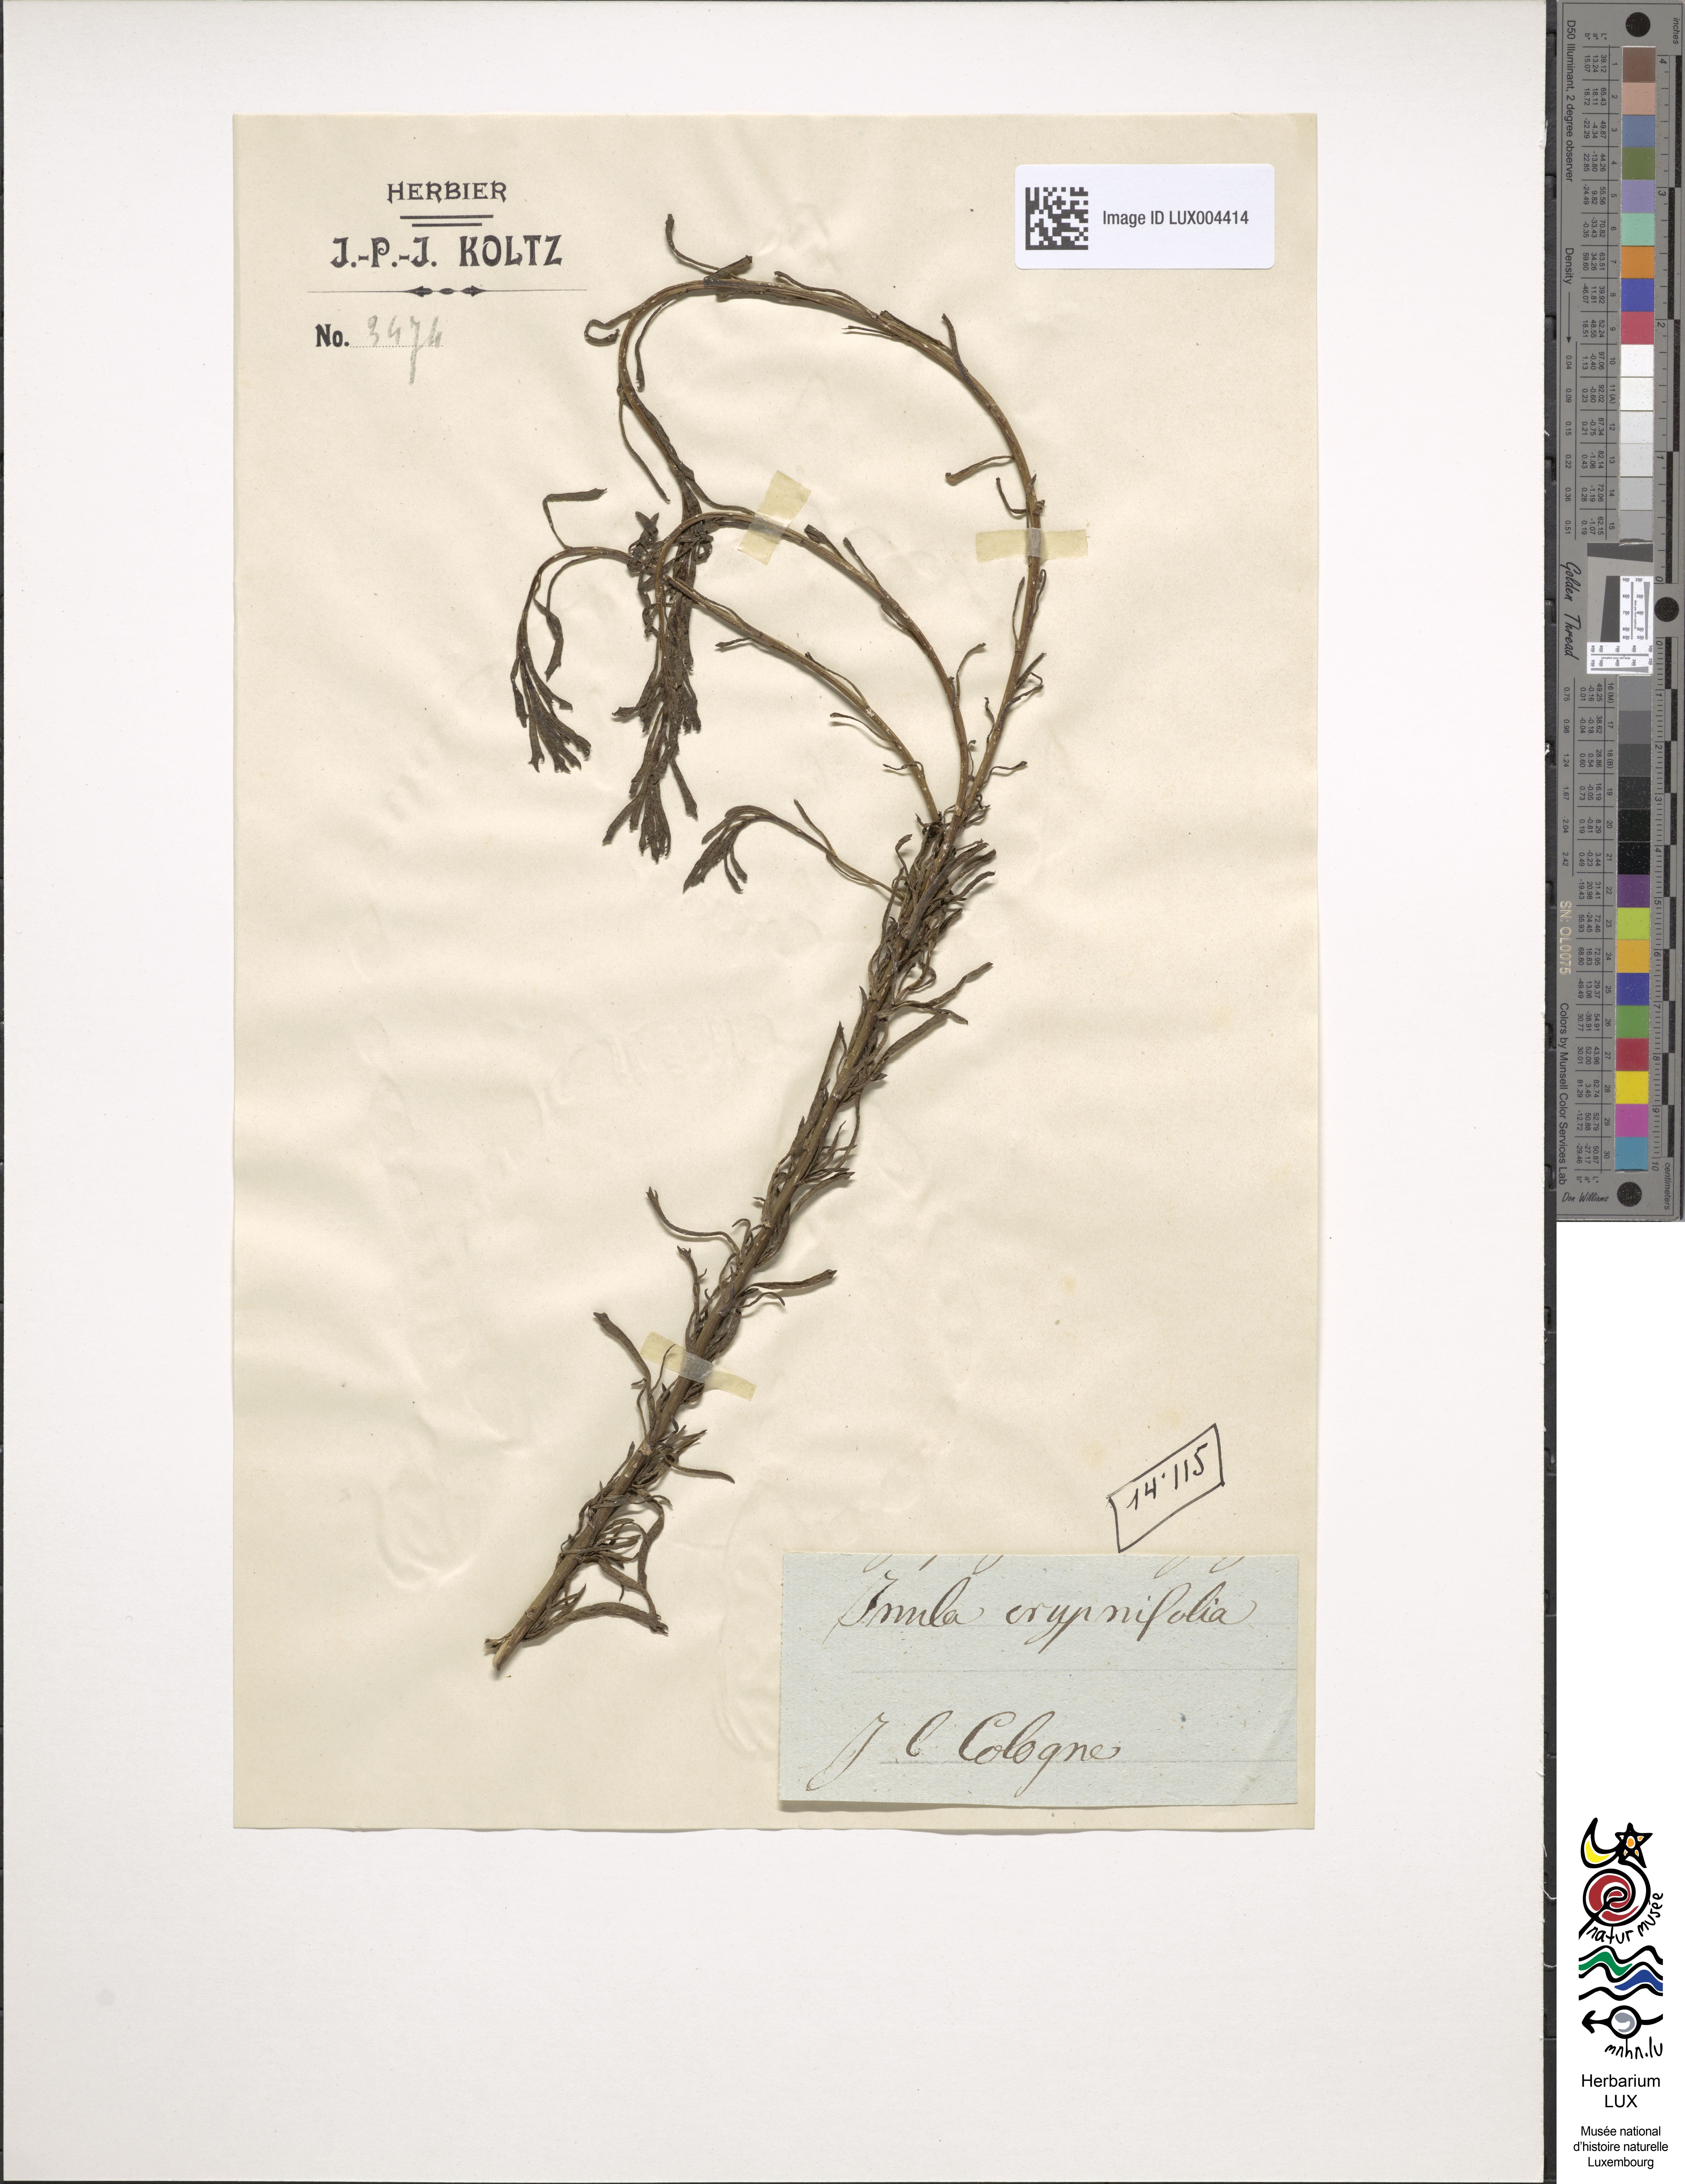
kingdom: Plantae
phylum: Tracheophyta
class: Magnoliopsida
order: Asterales
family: Asteraceae
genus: Inula
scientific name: Inula crithmifolia
